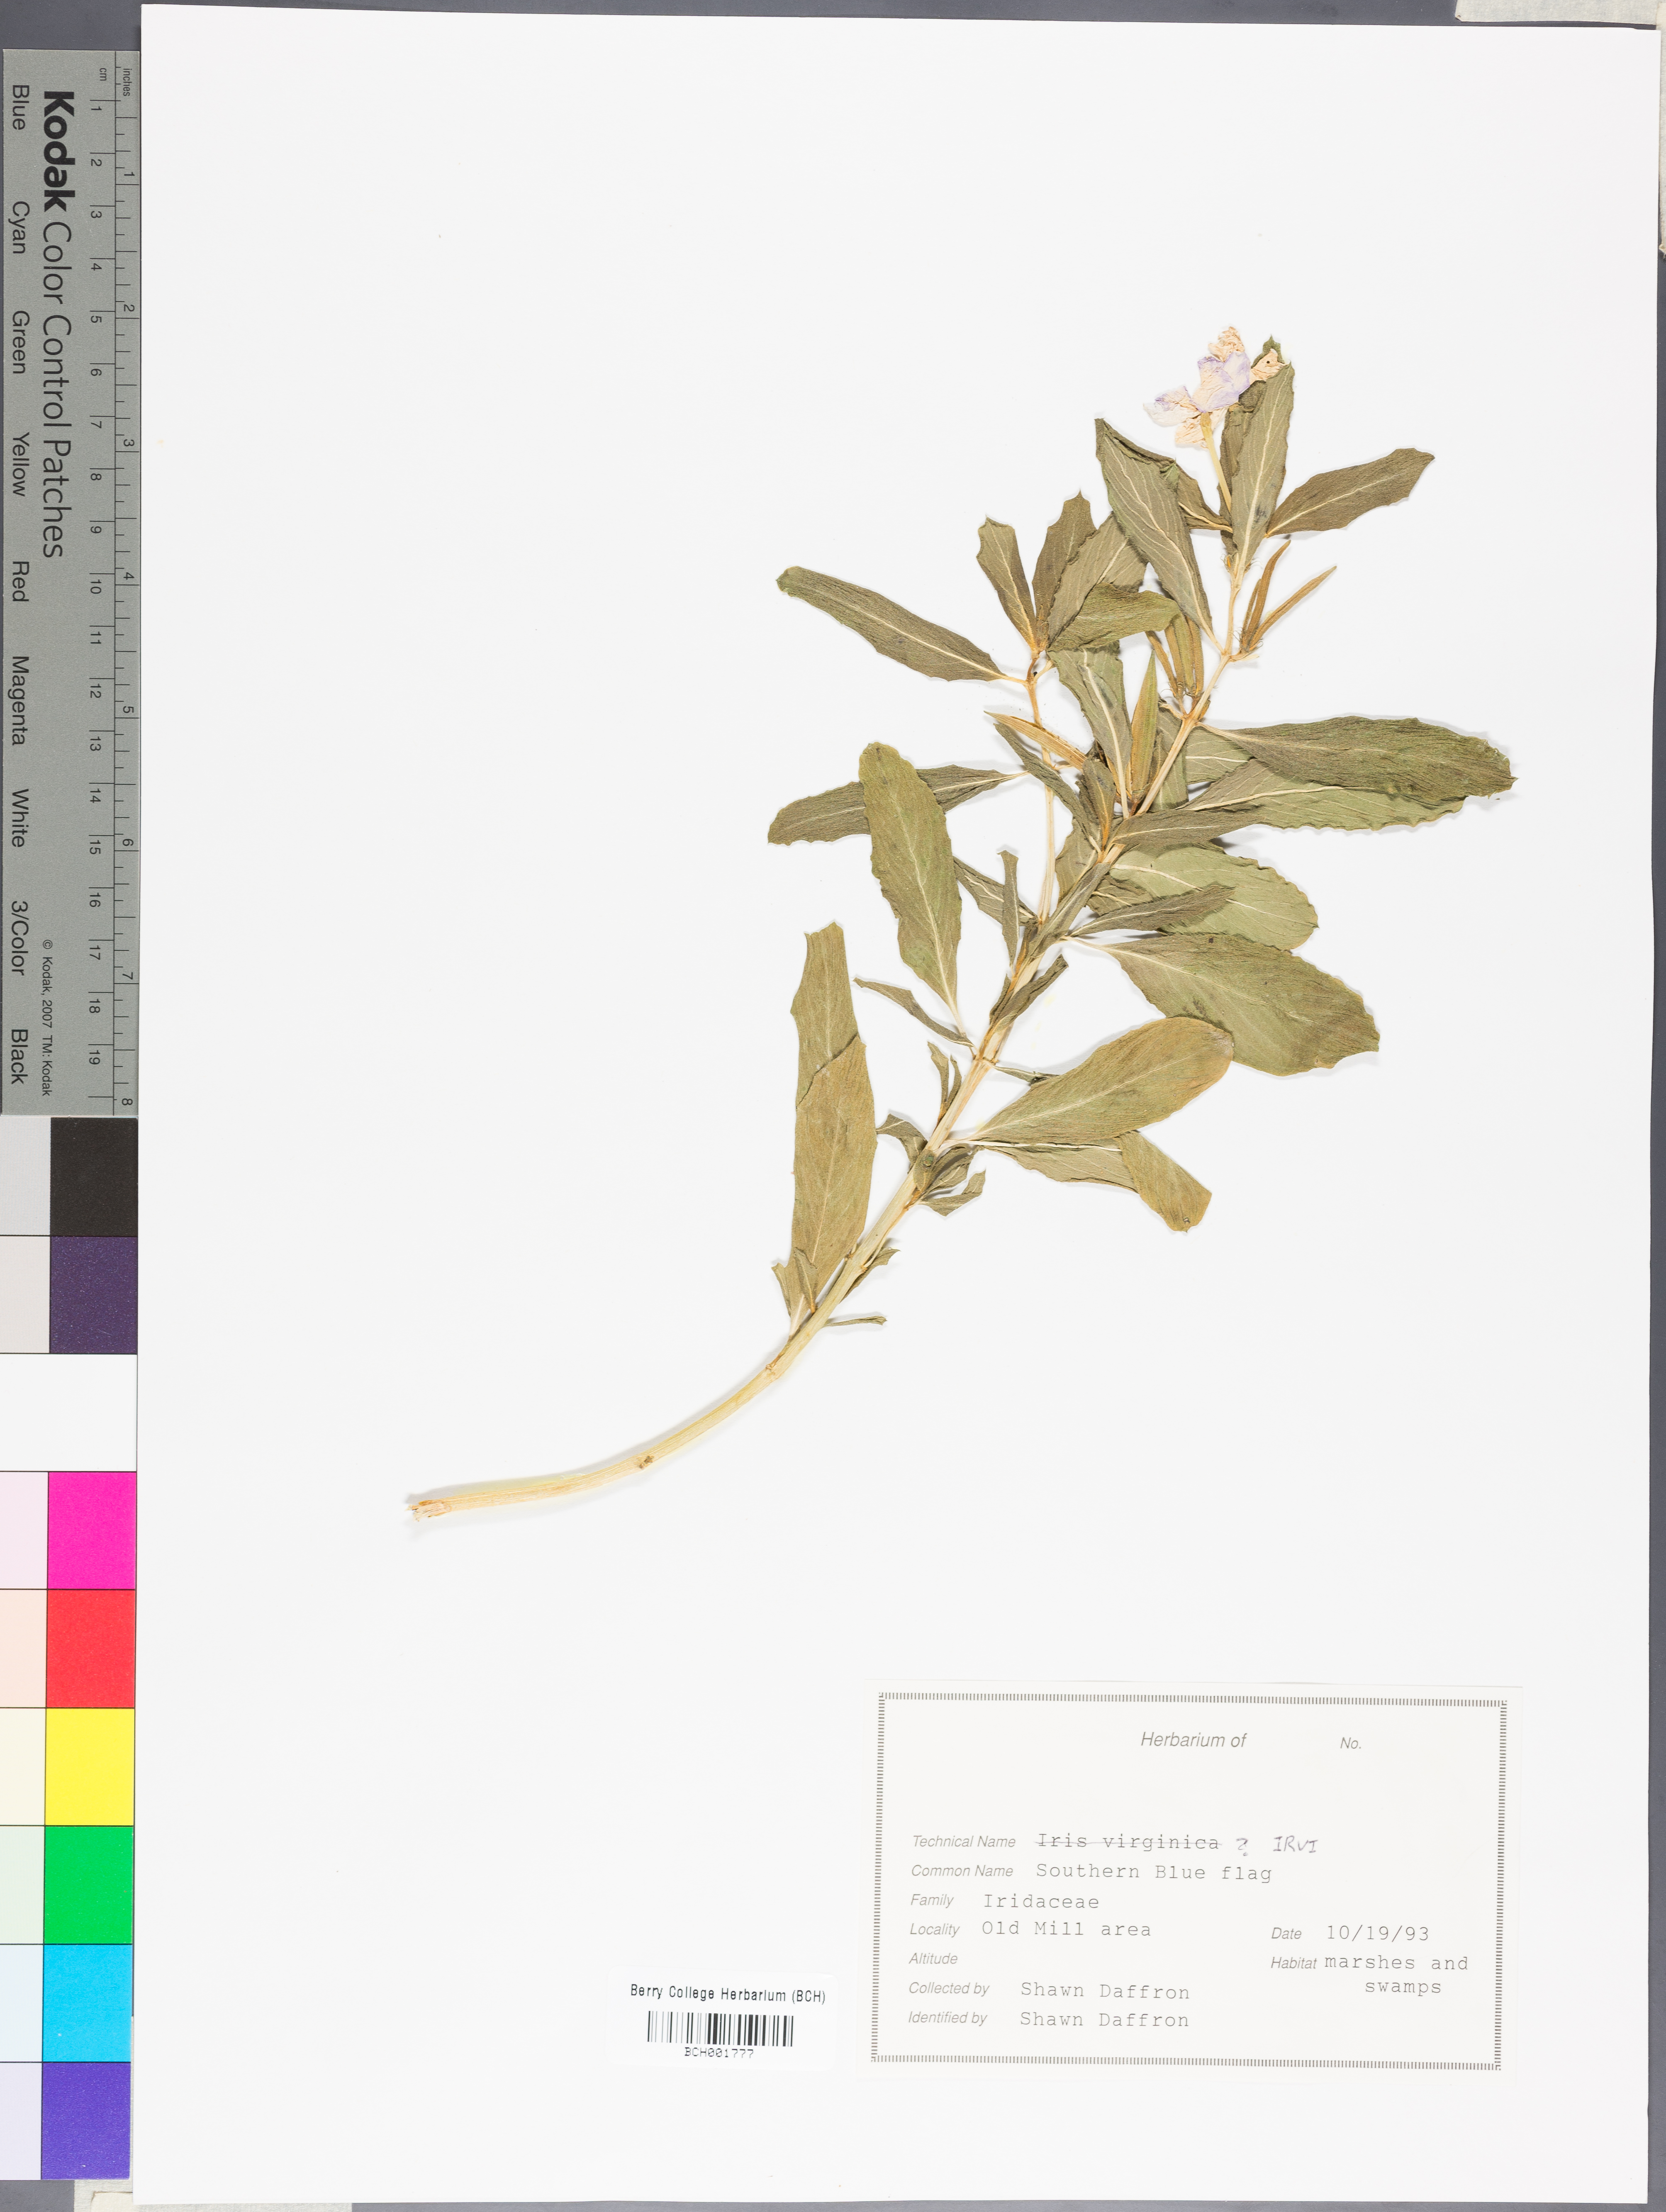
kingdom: Plantae
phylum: Tracheophyta
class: Liliopsida
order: Asparagales
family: Iridaceae
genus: Iris
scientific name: Iris virginica
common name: Southern blue flag
